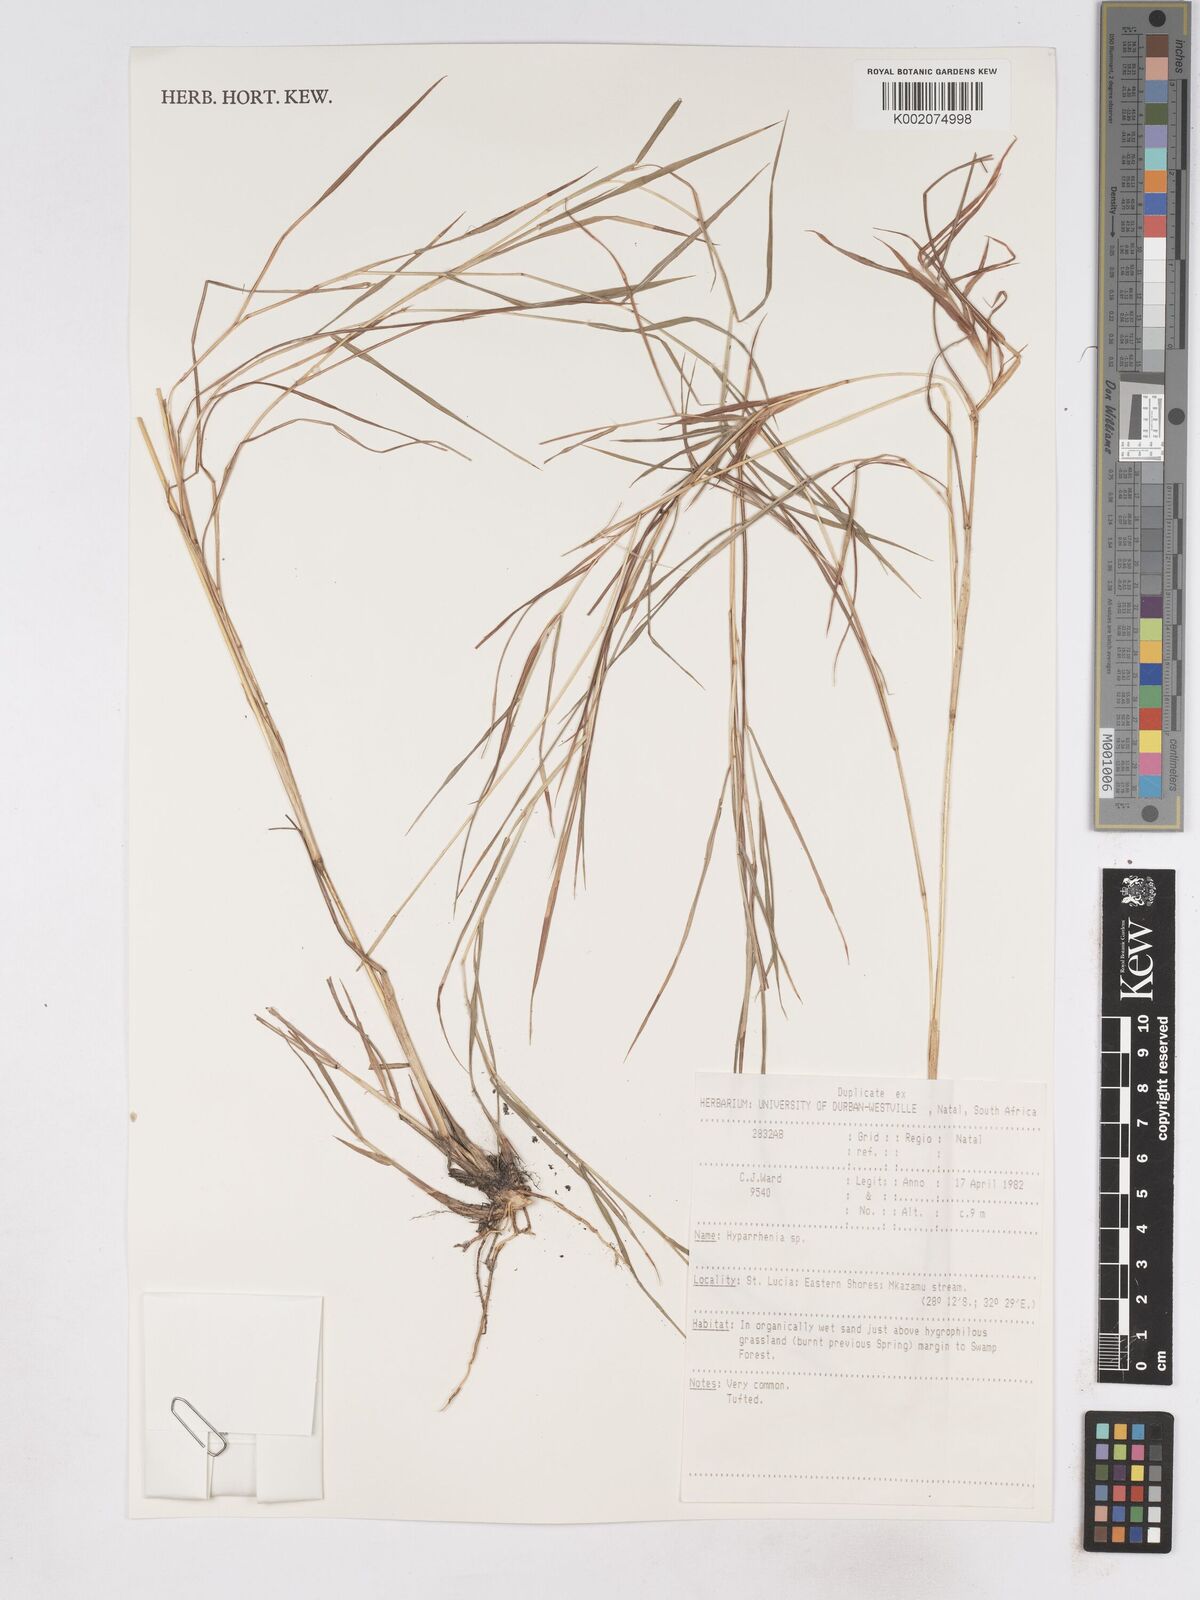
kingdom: Plantae
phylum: Tracheophyta
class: Liliopsida
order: Poales
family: Poaceae
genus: Hyparrhenia
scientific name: Hyparrhenia
